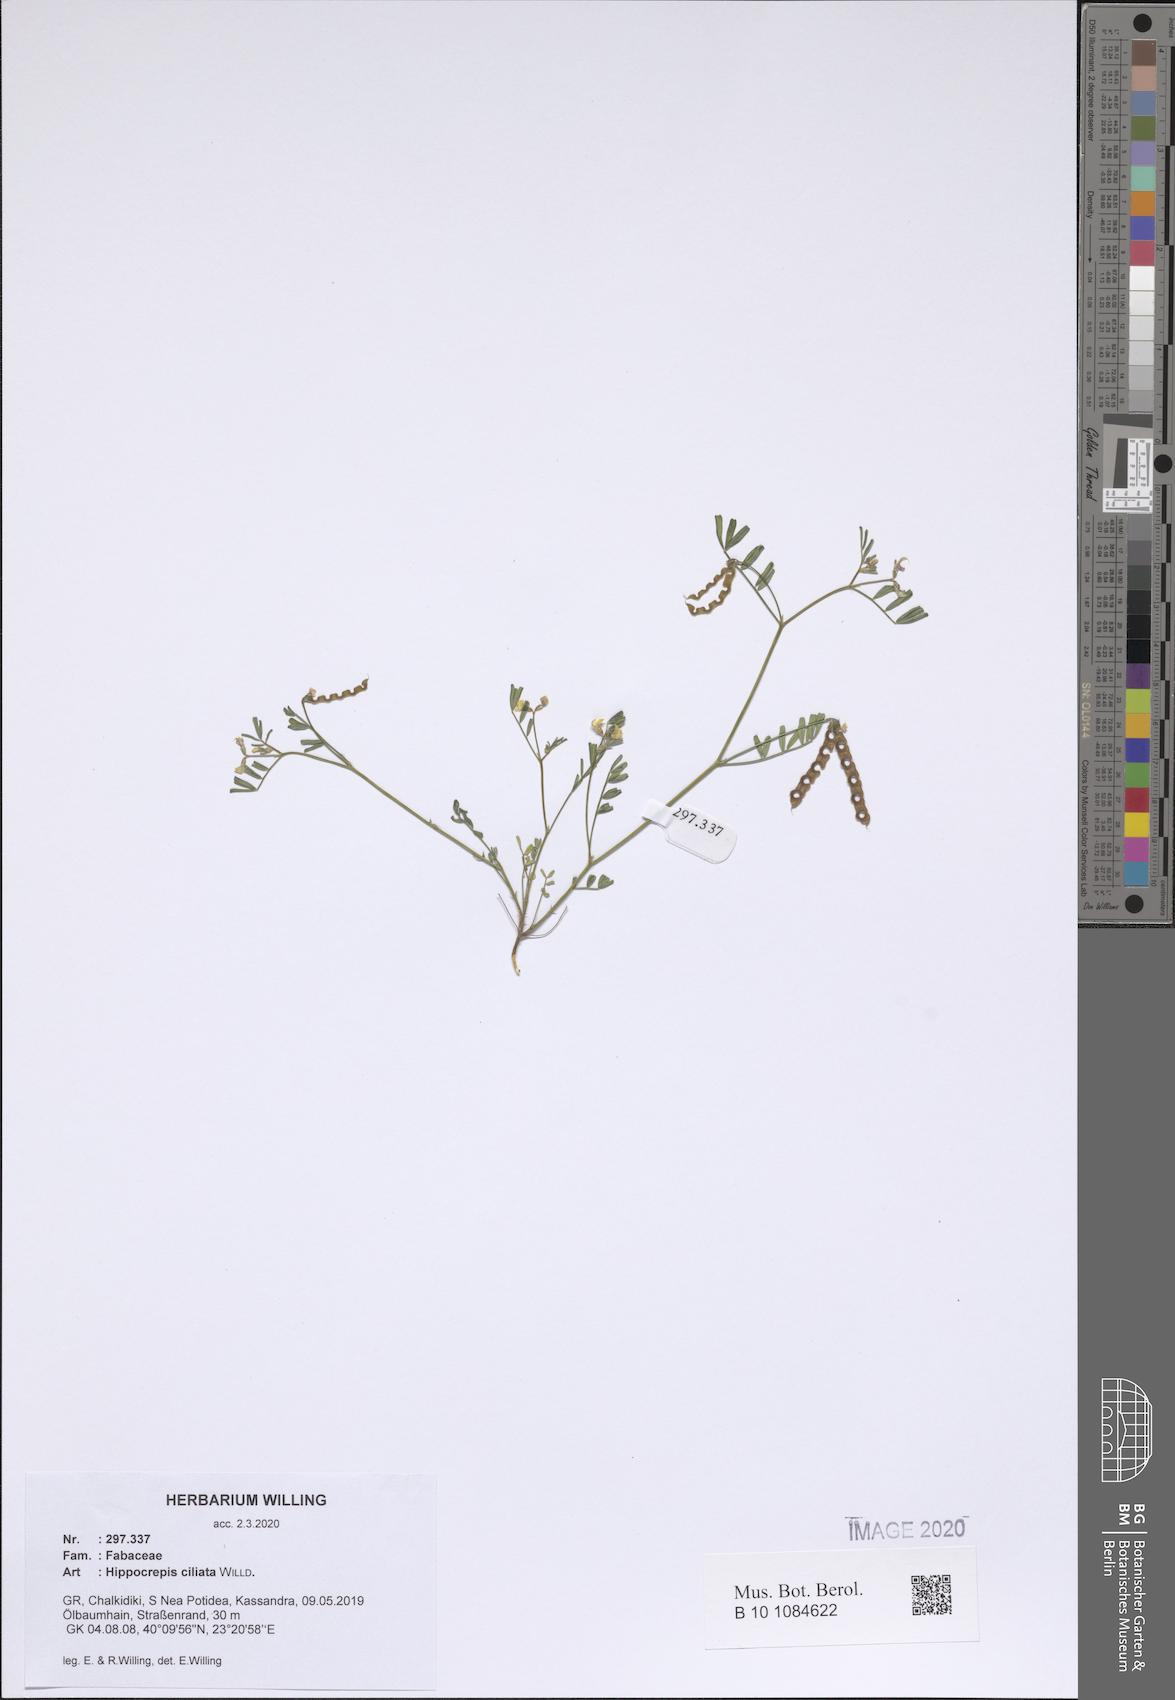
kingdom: Plantae
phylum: Tracheophyta
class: Magnoliopsida
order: Fabales
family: Fabaceae
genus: Hippocrepis
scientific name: Hippocrepis ciliata
